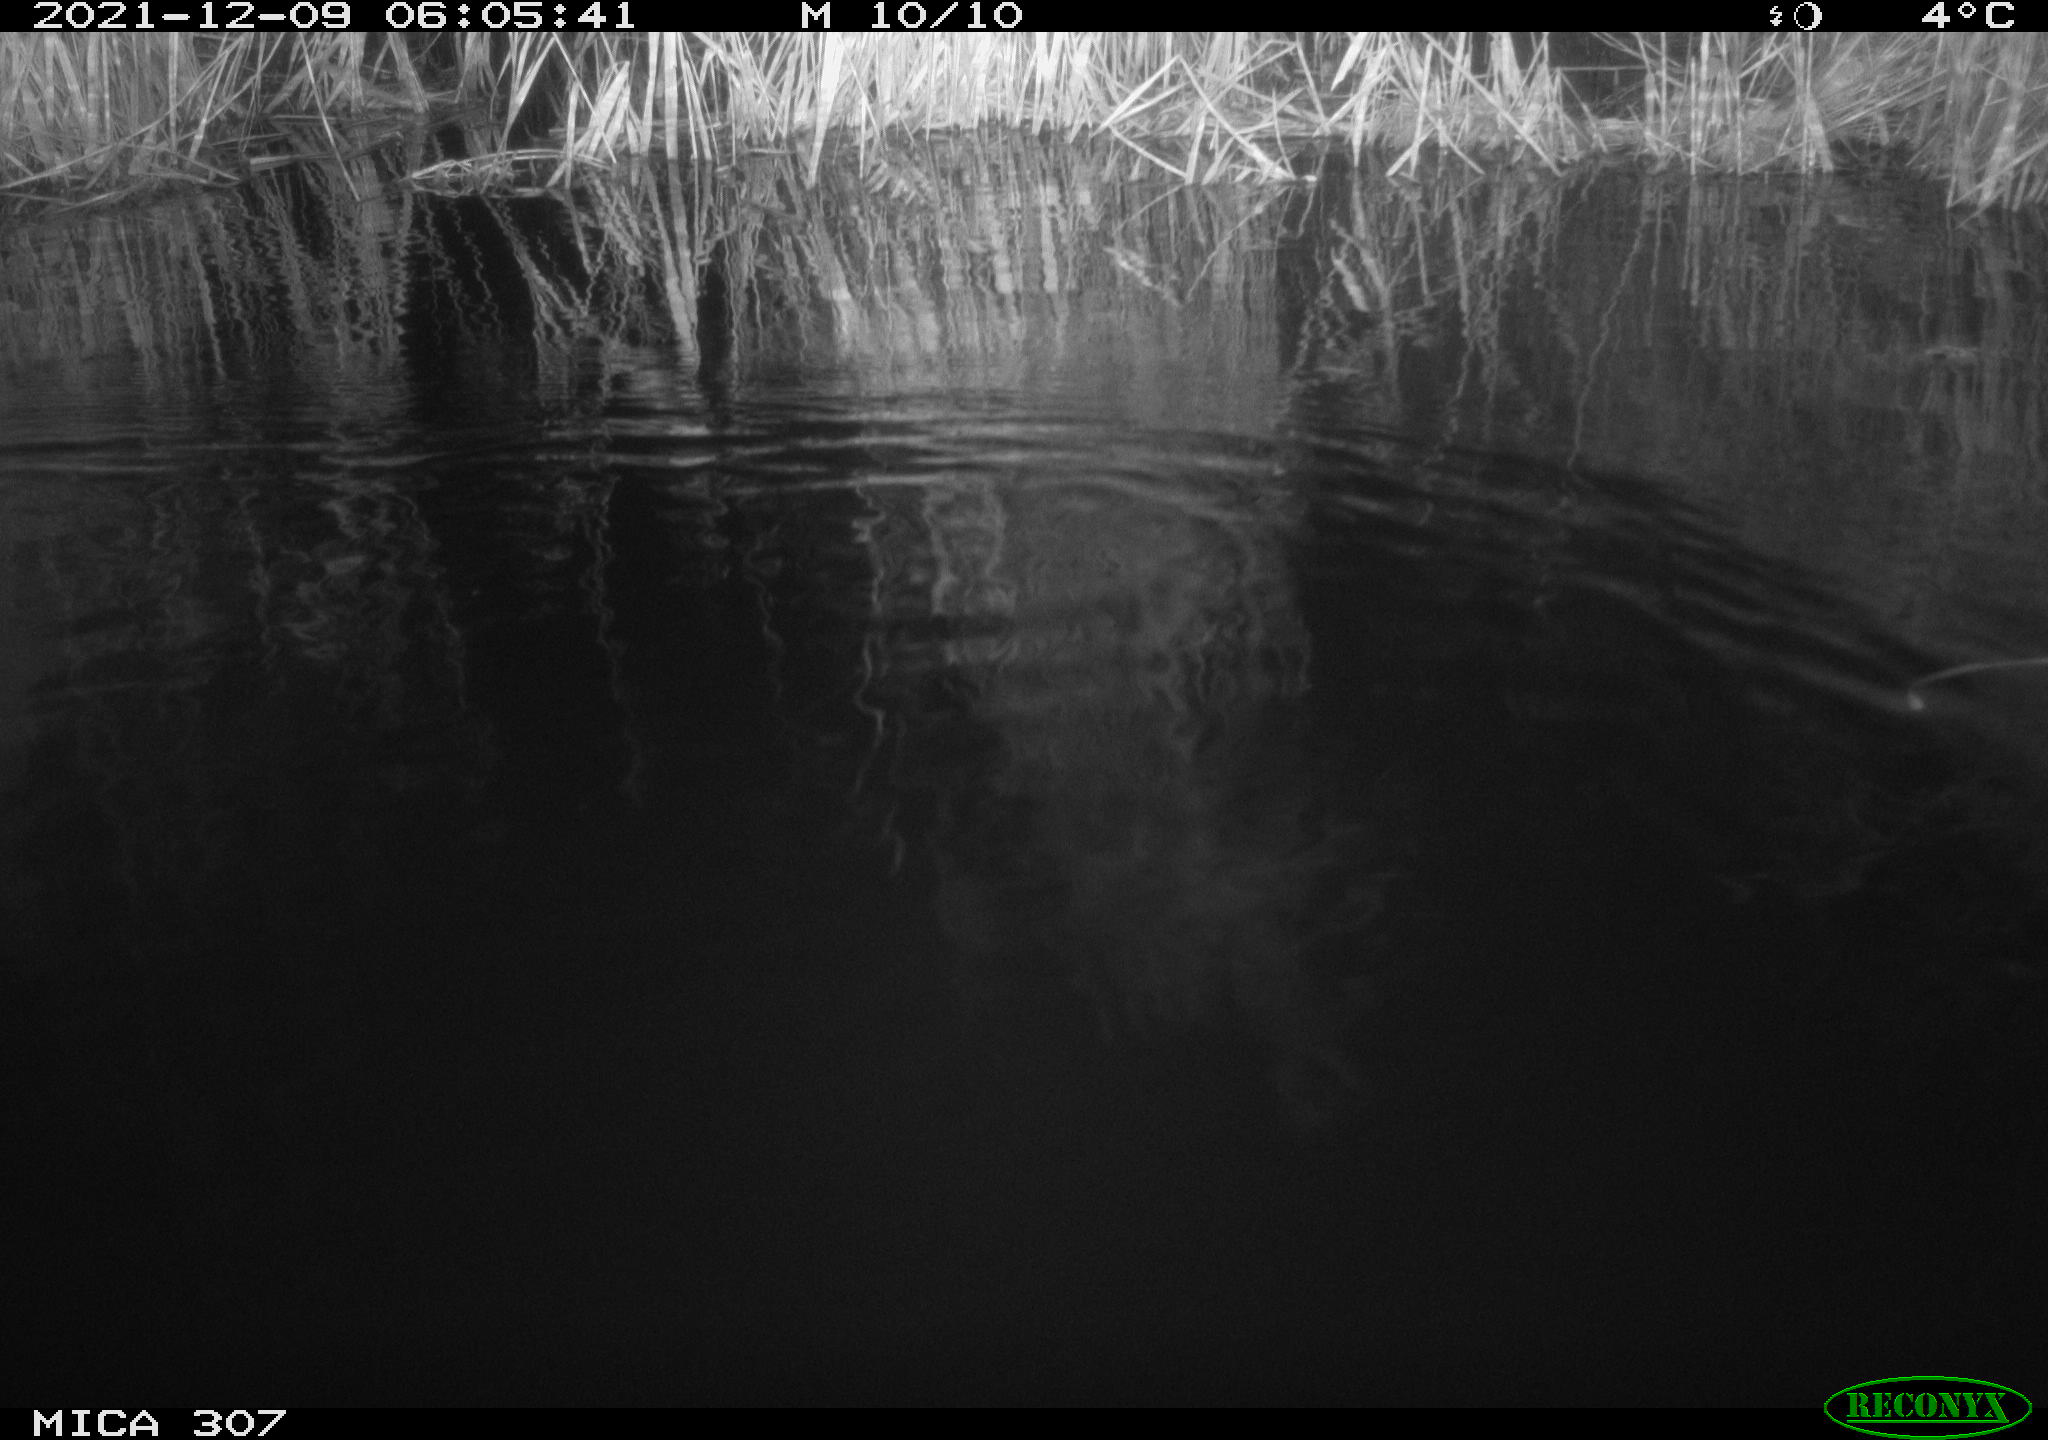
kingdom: Animalia
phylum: Chordata
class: Mammalia
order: Rodentia
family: Muridae
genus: Rattus
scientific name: Rattus norvegicus
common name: Brown rat
